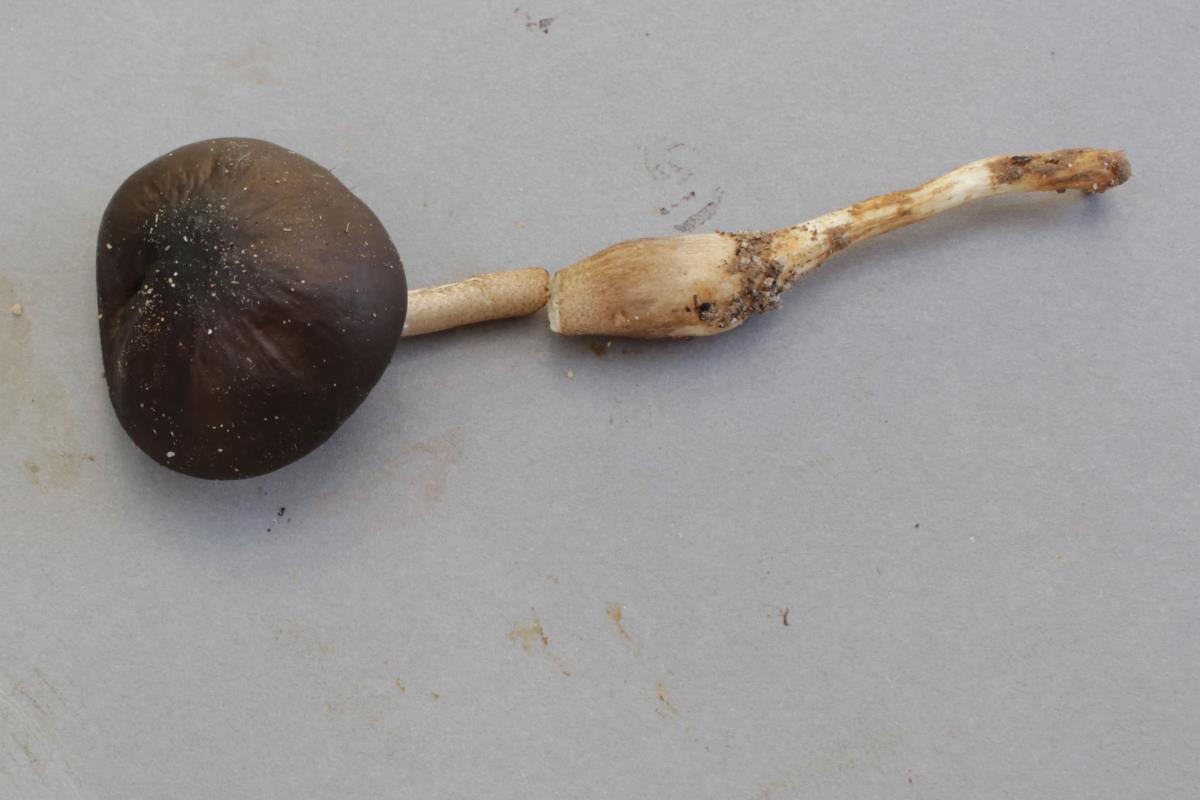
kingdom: Fungi
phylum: Basidiomycota
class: Agaricomycetes
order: Agaricales
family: Physalacriaceae
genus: Hymenopellis
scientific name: Hymenopellis mundroola
